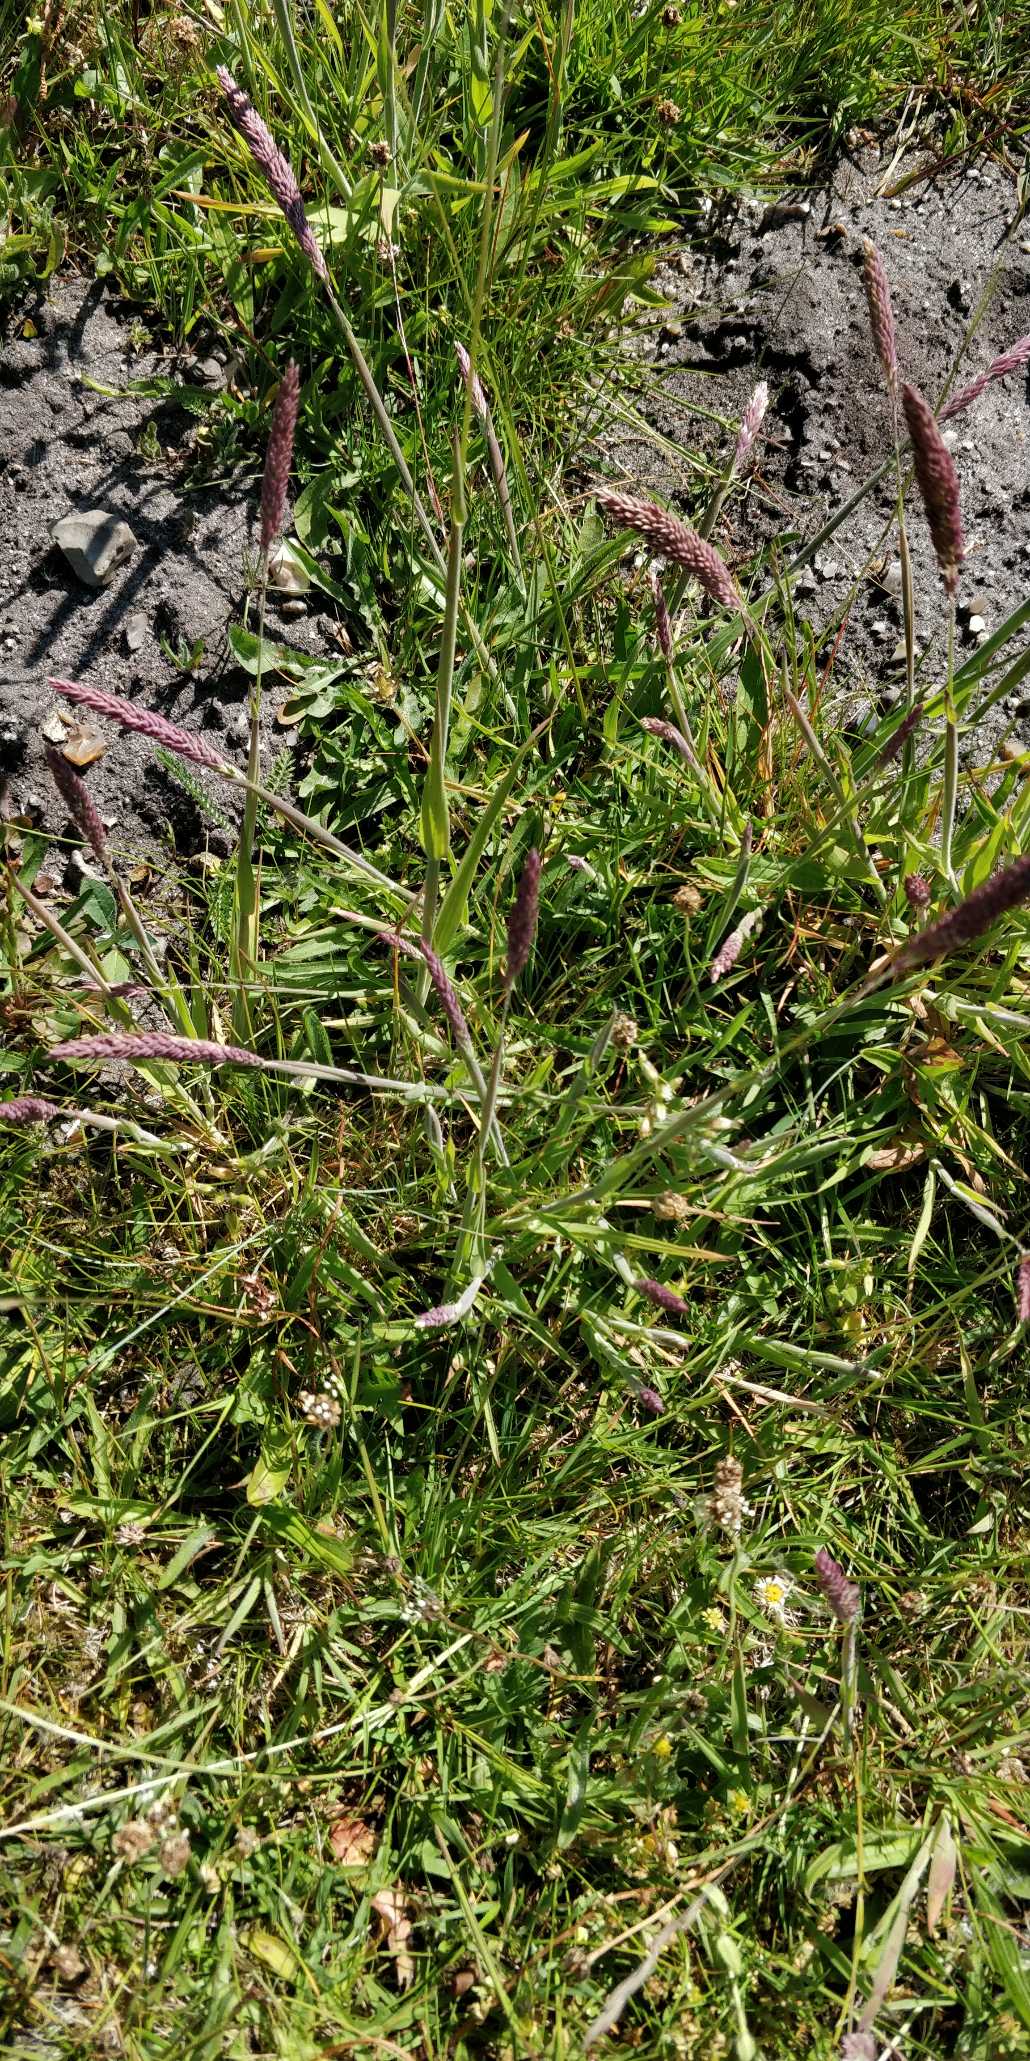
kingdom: Plantae
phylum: Tracheophyta
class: Liliopsida
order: Poales
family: Poaceae
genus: Holcus
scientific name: Holcus lanatus
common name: Fløjlsgræs
